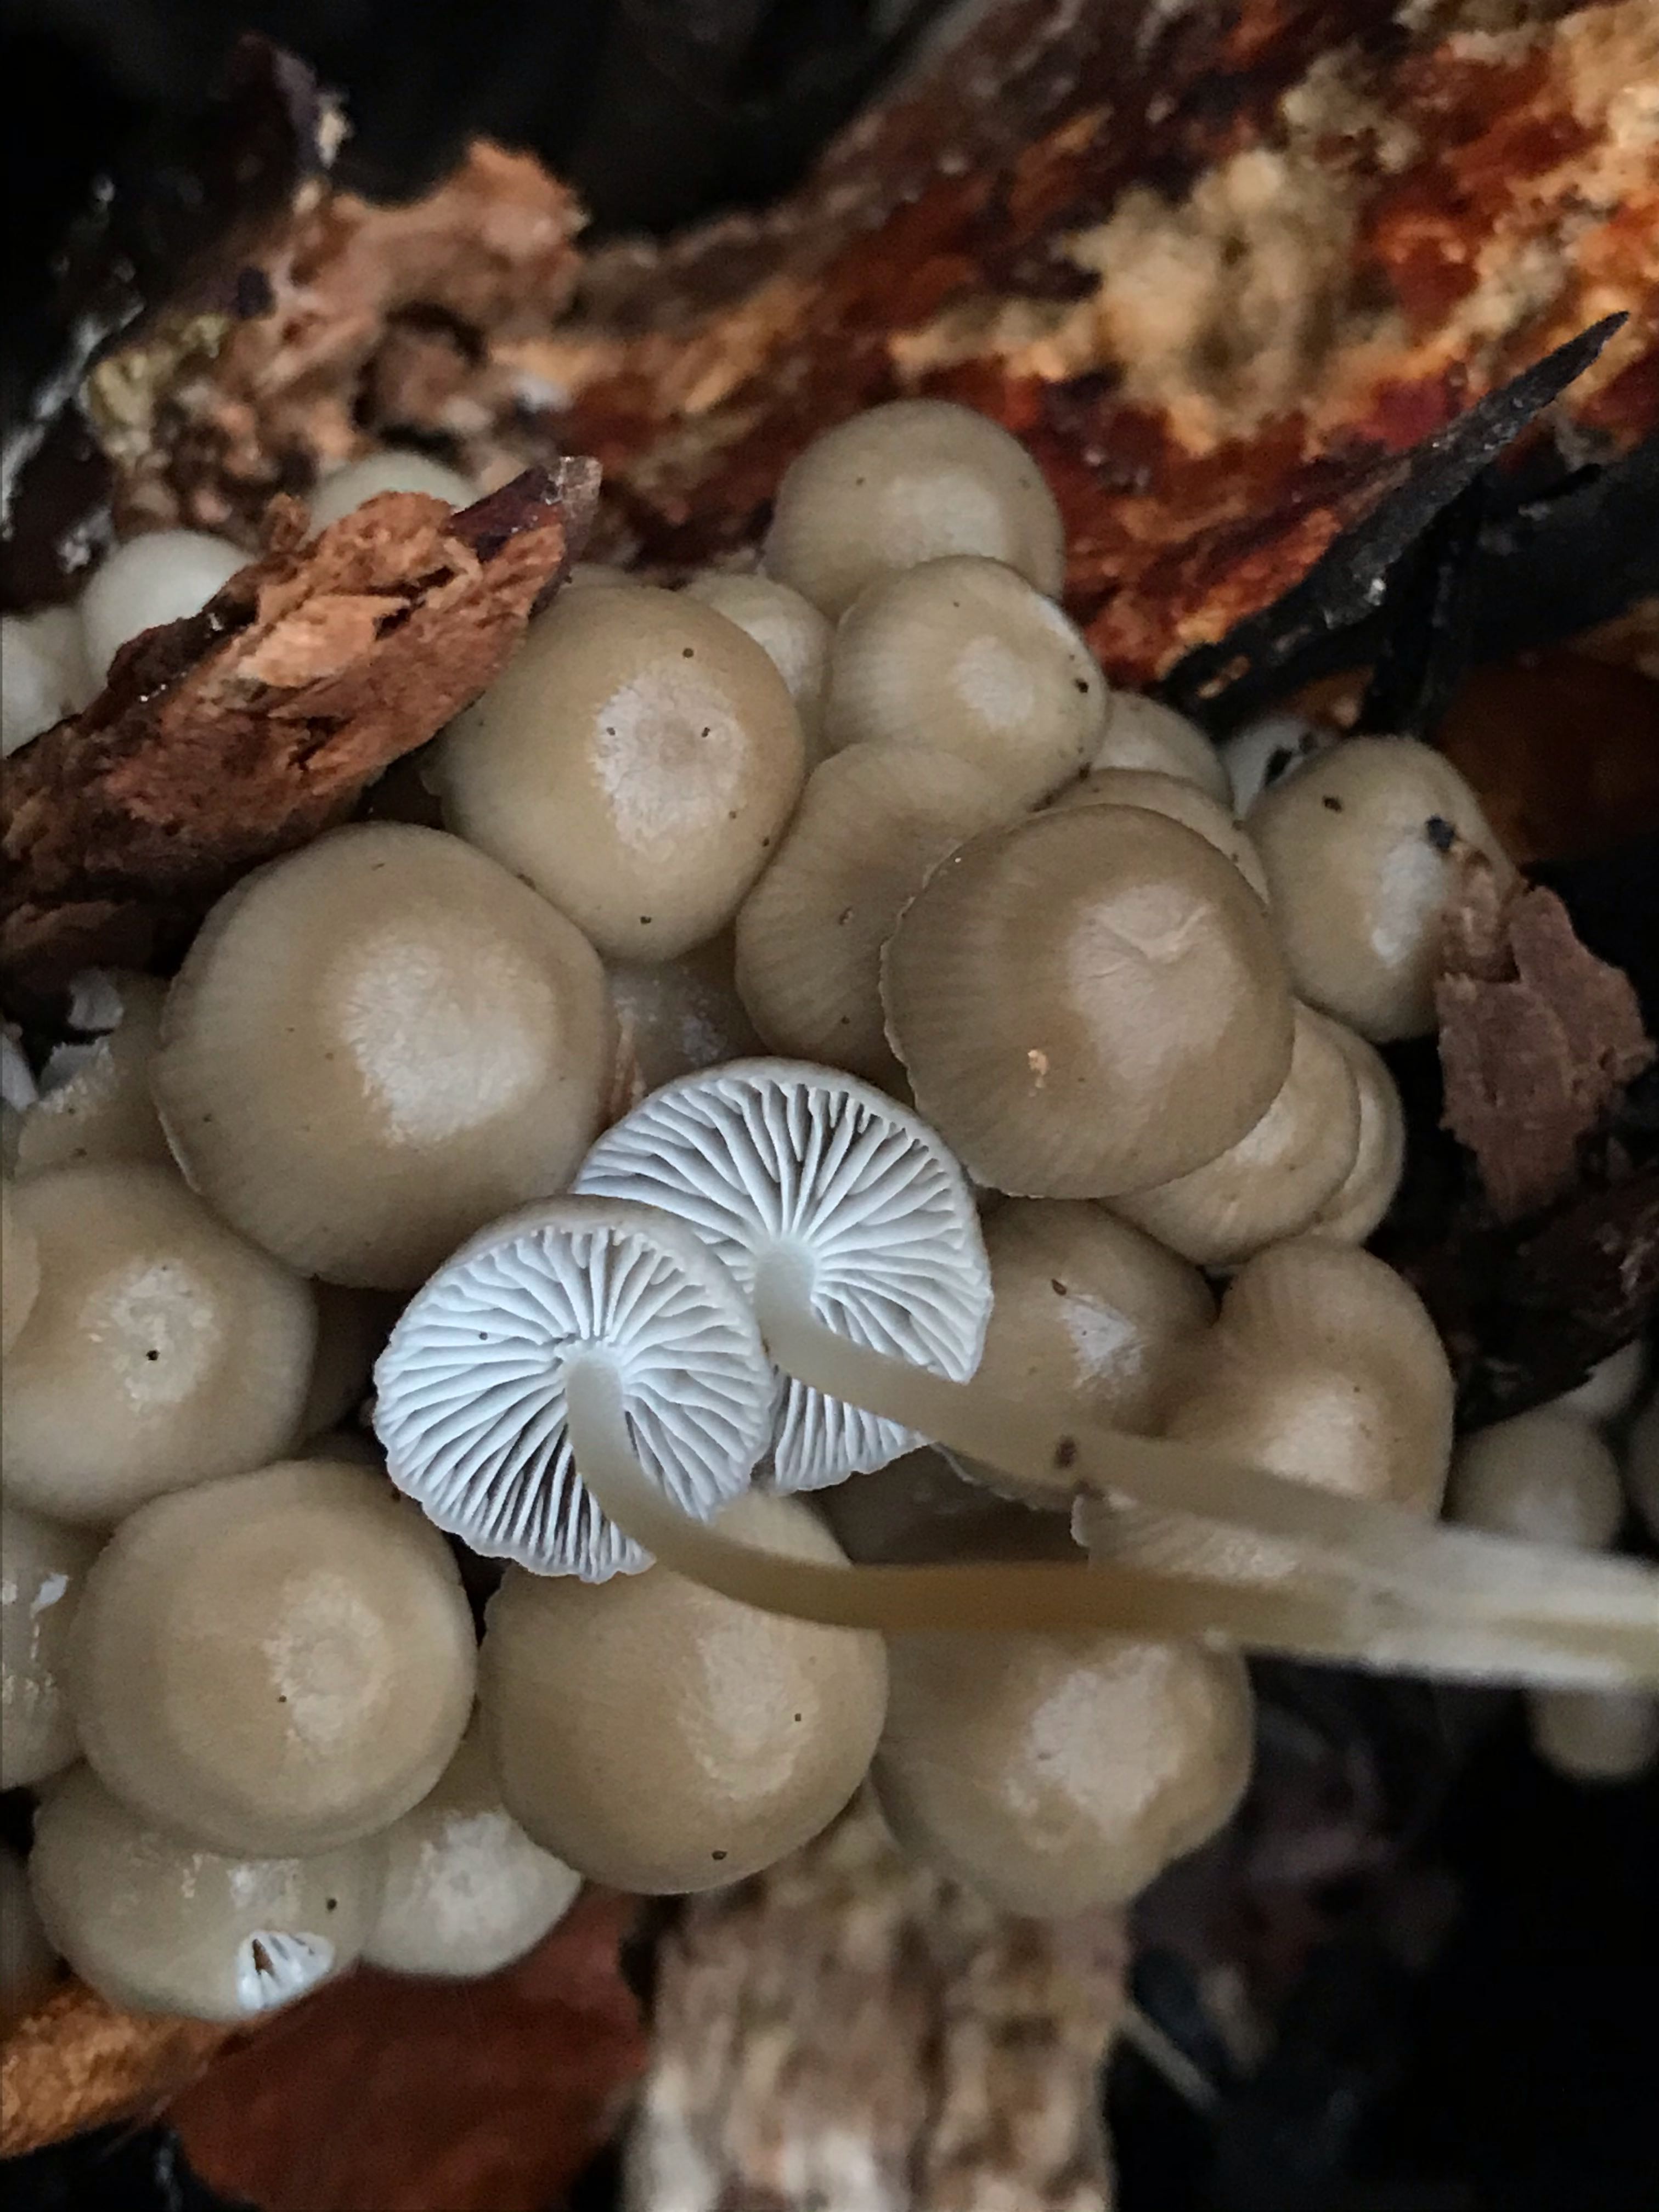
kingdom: Fungi
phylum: Basidiomycota
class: Agaricomycetes
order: Agaricales
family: Mycenaceae
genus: Mycena
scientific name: Mycena tintinnabulum
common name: vinter-huesvamp
